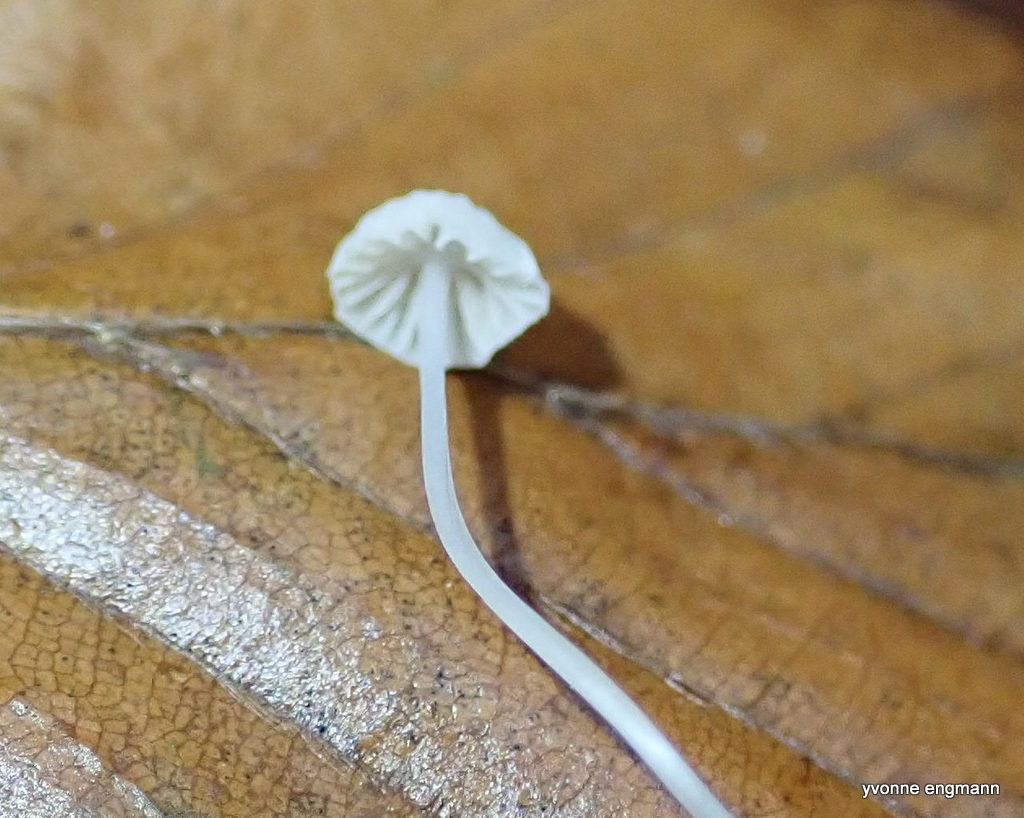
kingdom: Fungi
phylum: Basidiomycota
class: Agaricomycetes
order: Agaricales
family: Mycenaceae
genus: Mycena
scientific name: Mycena
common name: huesvamp
